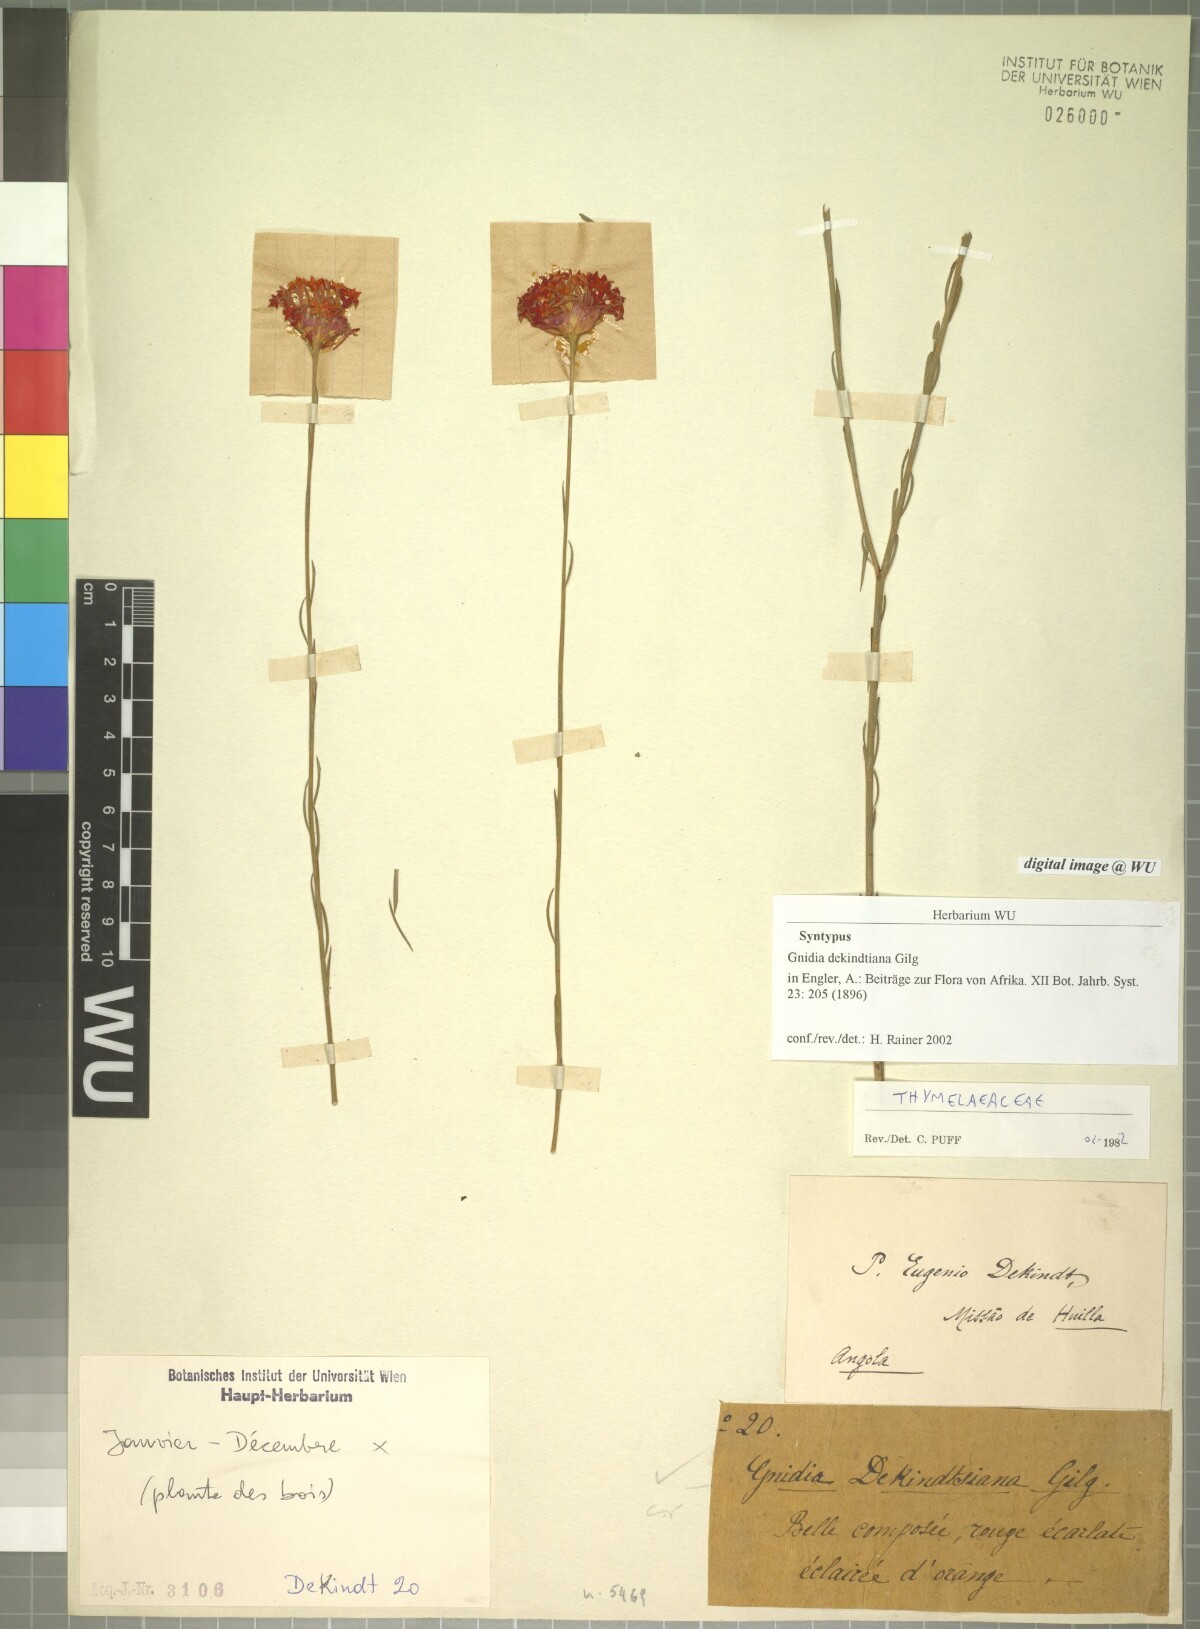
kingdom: Plantae
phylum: Tracheophyta
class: Magnoliopsida
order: Malvales
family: Thymelaeaceae
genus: Gnidia
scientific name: Gnidia dekindtiana
